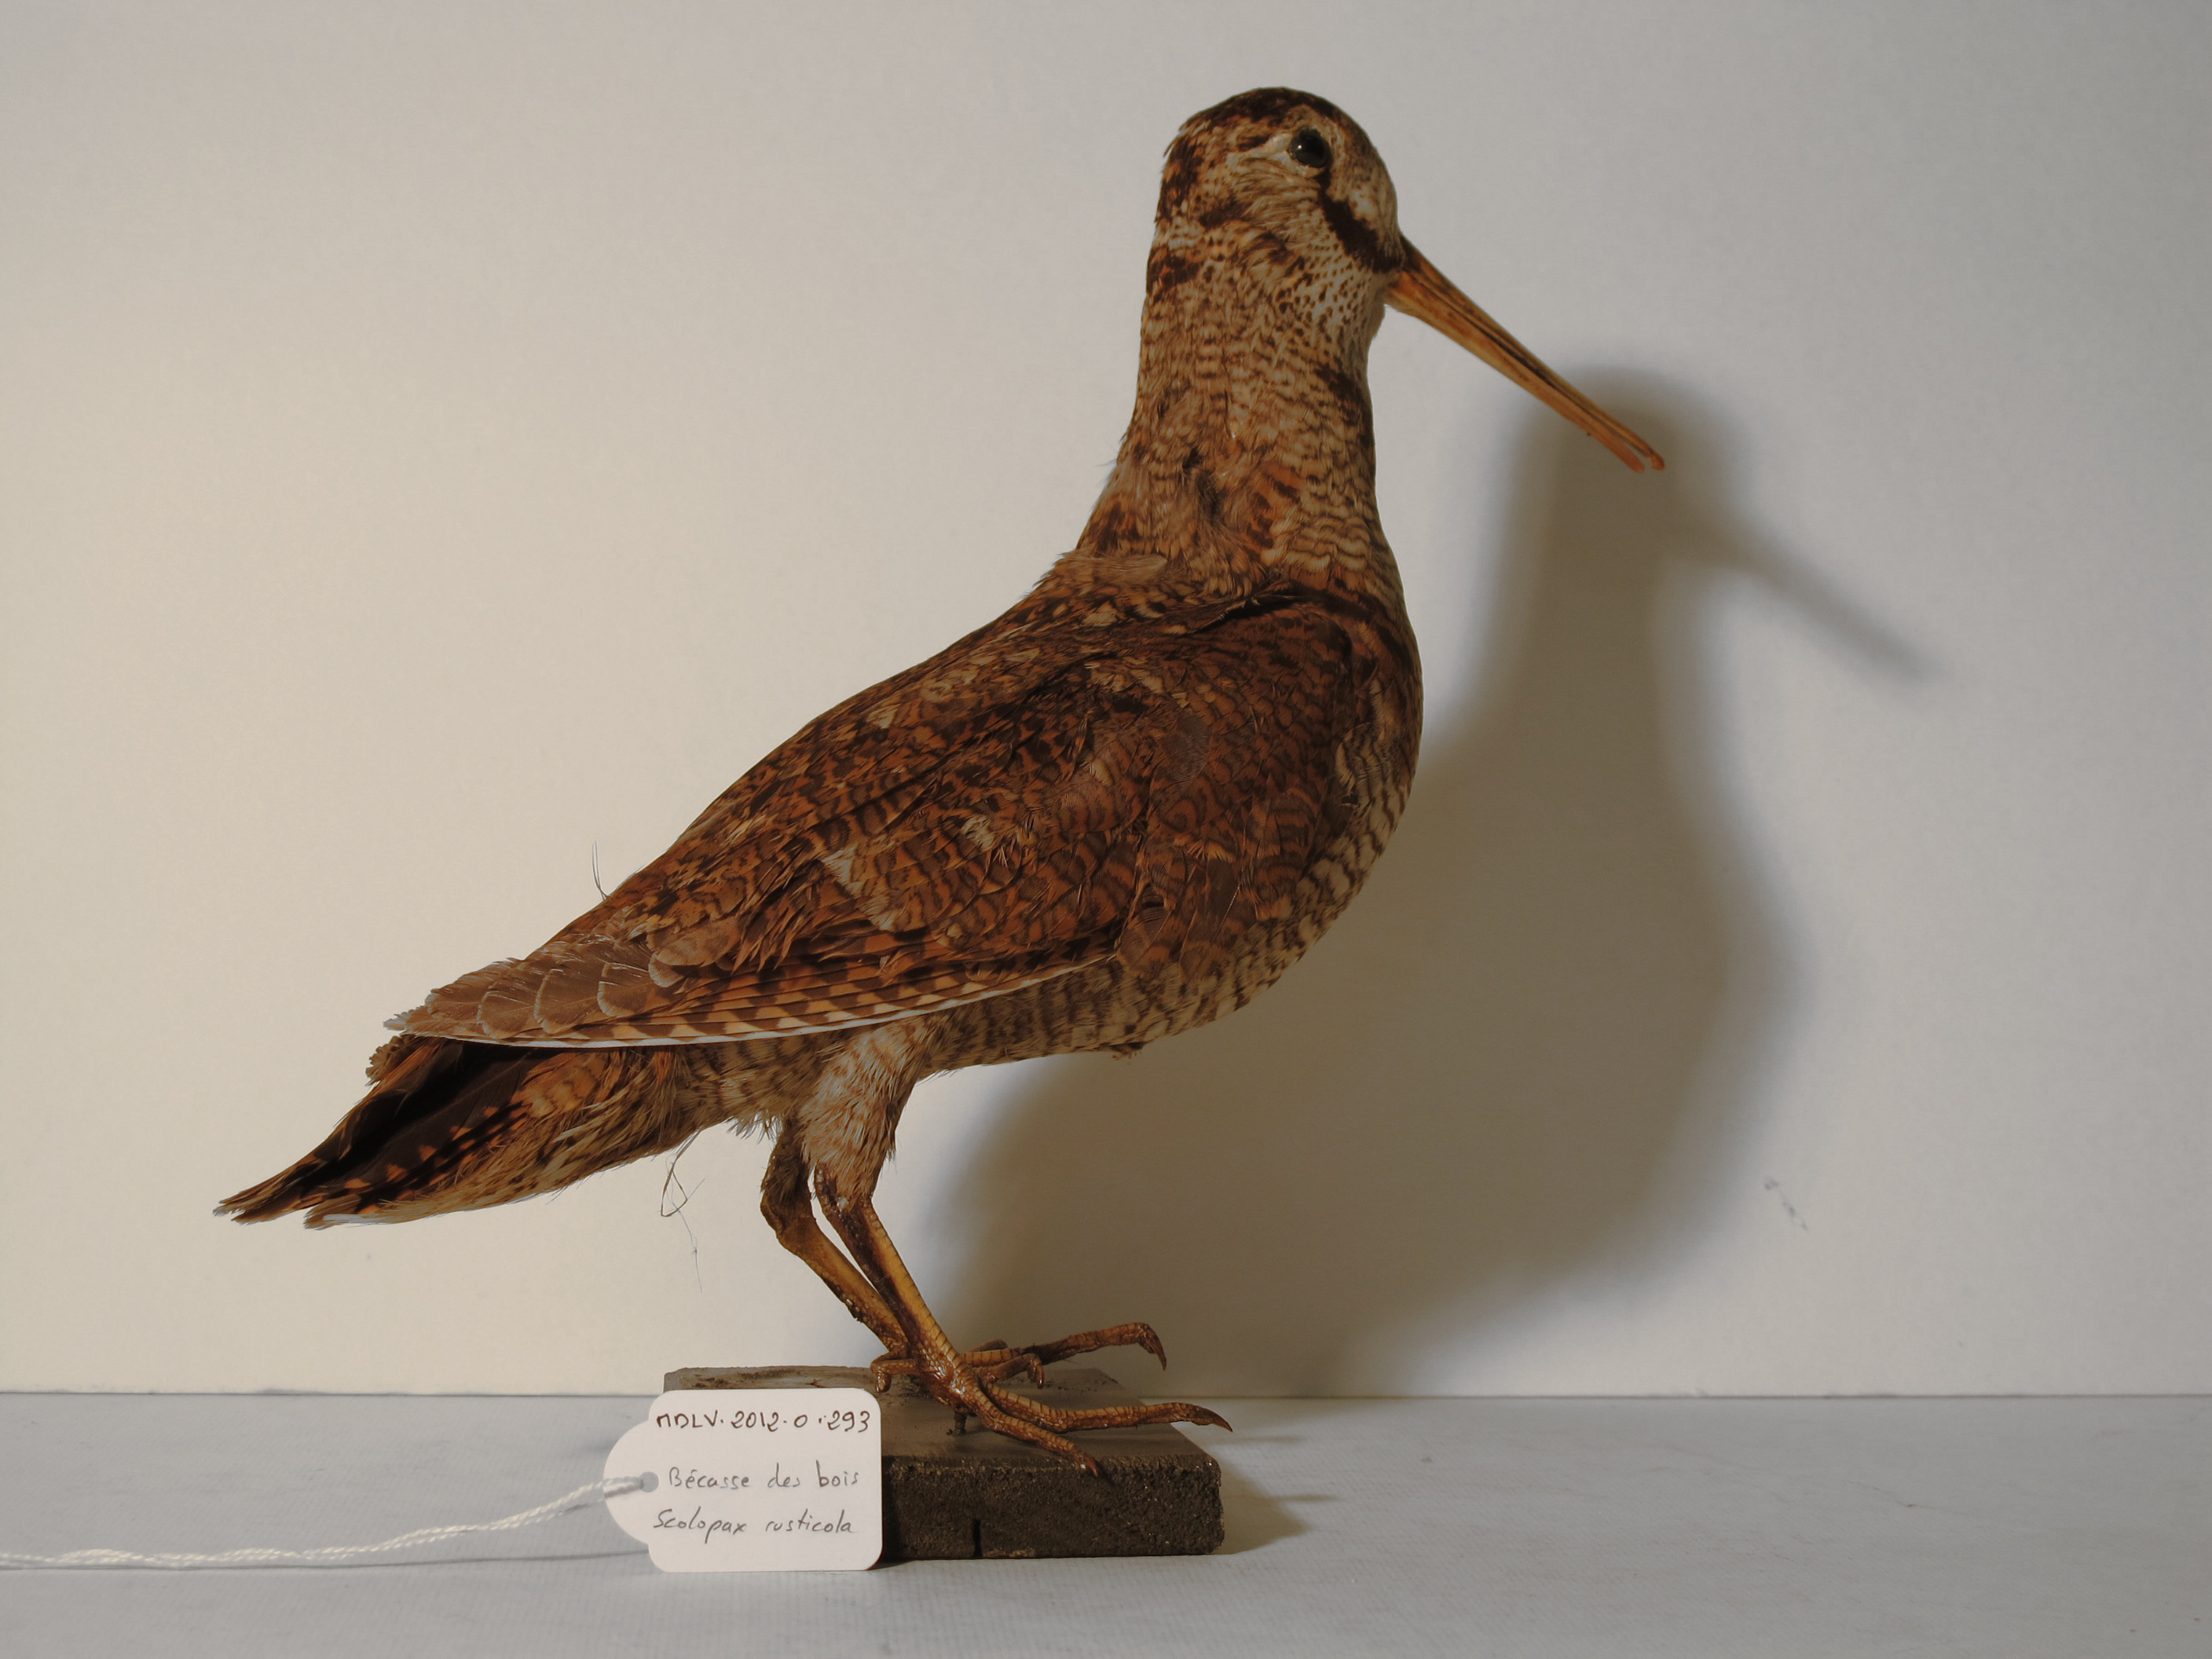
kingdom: Animalia
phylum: Chordata
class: Aves
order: Charadriiformes
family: Scolopacidae
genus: Scolopax
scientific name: Scolopax rusticola
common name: Eurasian Woodcock
